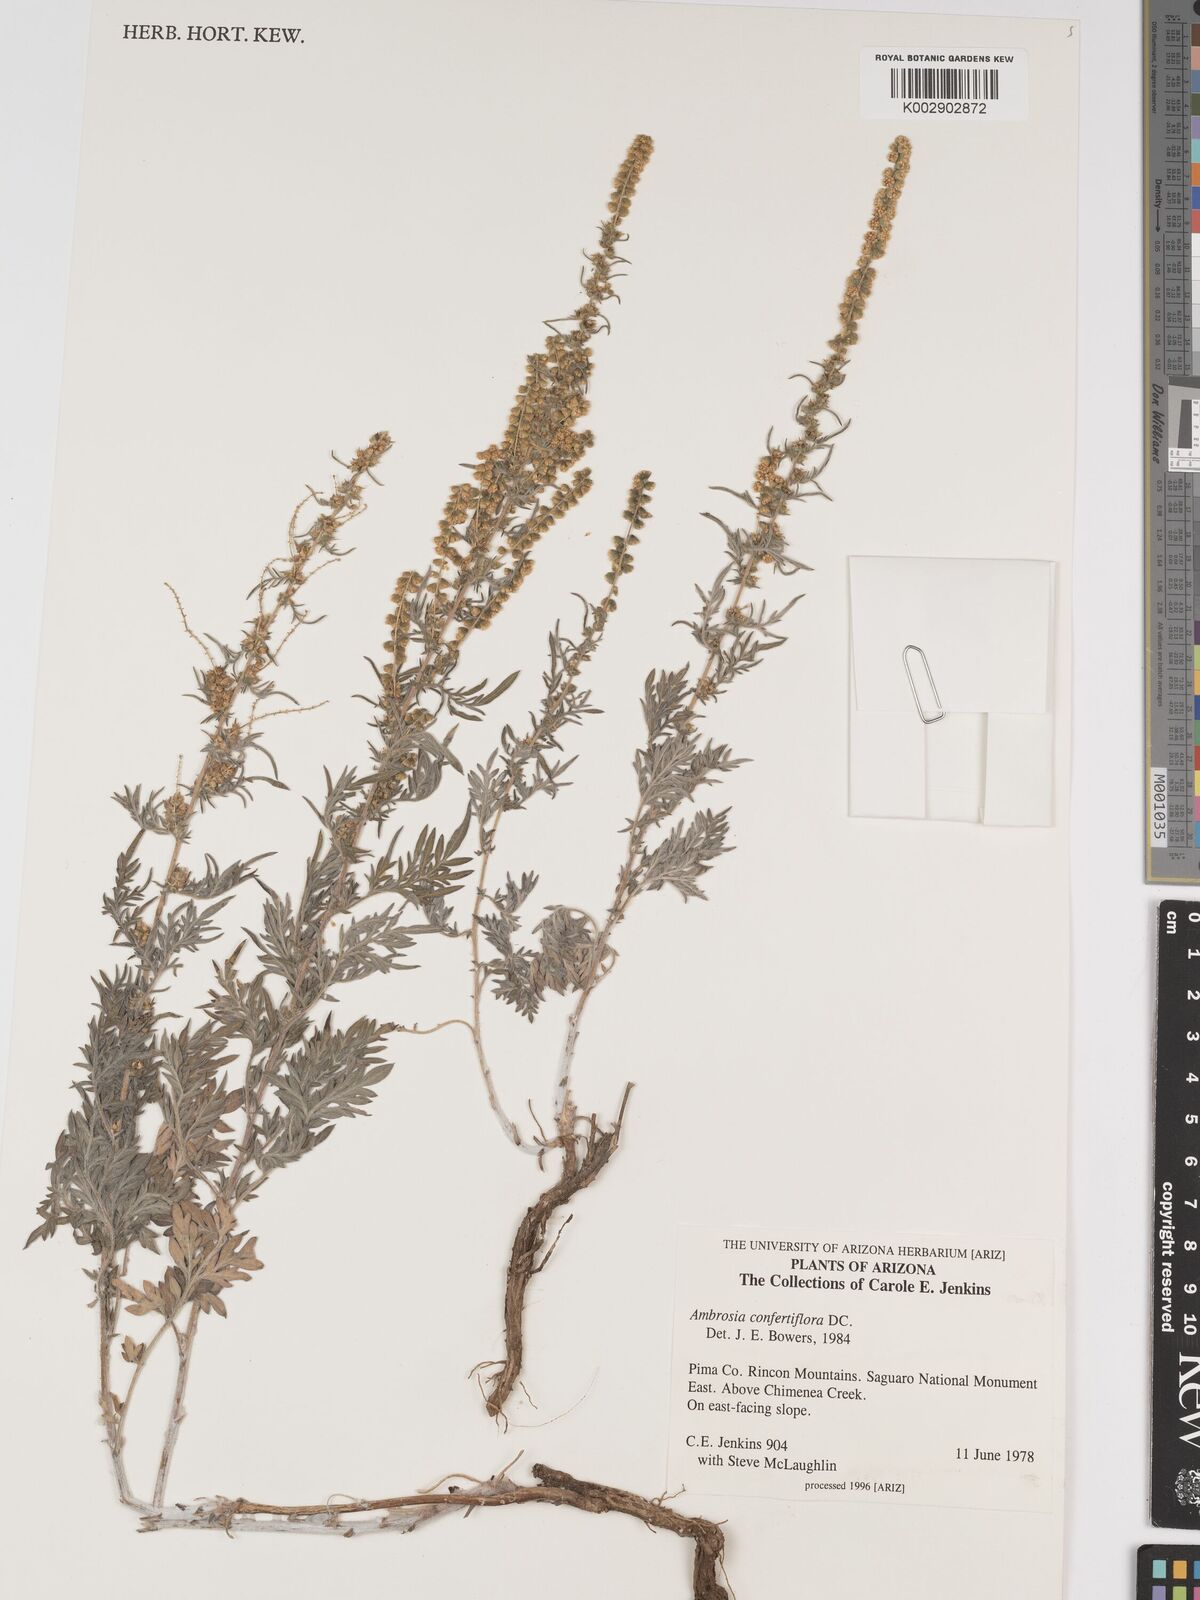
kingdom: Plantae
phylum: Tracheophyta
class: Magnoliopsida
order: Asterales
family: Asteraceae
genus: Ambrosia
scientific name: Ambrosia confertiflora
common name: Bur ragweed
